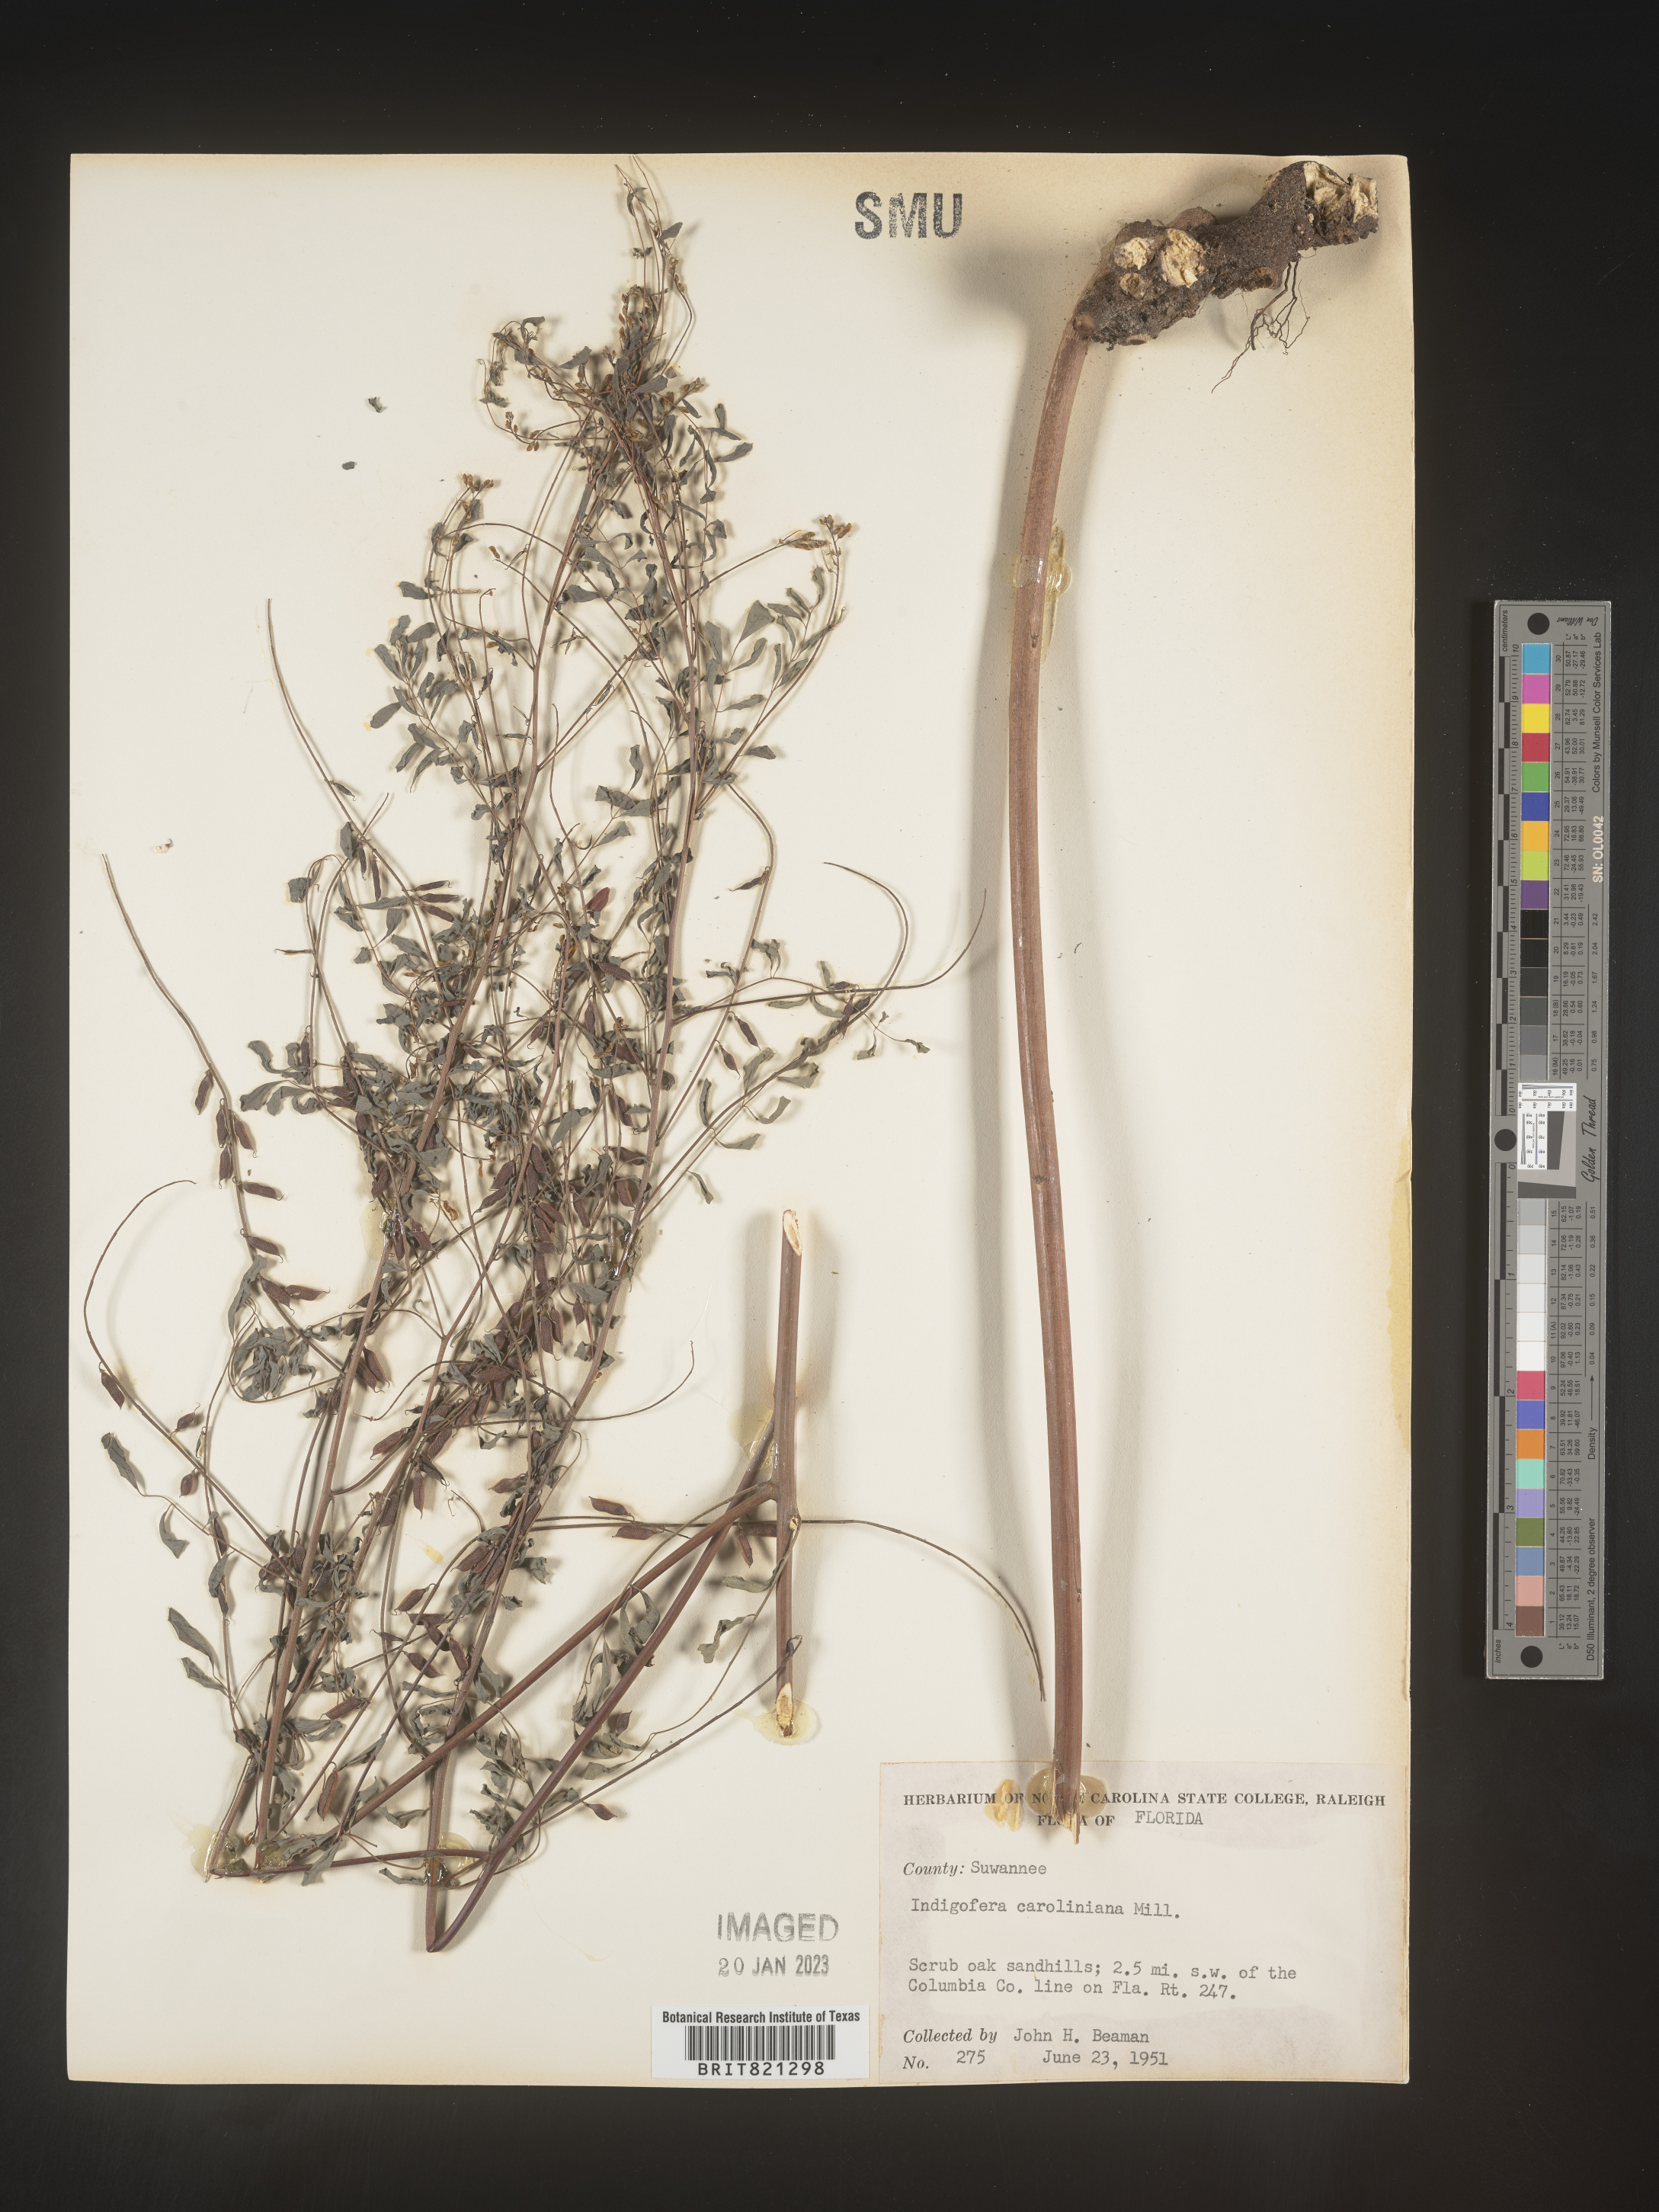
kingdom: Plantae
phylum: Tracheophyta
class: Magnoliopsida
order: Fabales
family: Fabaceae
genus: Indigofera
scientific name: Indigofera
